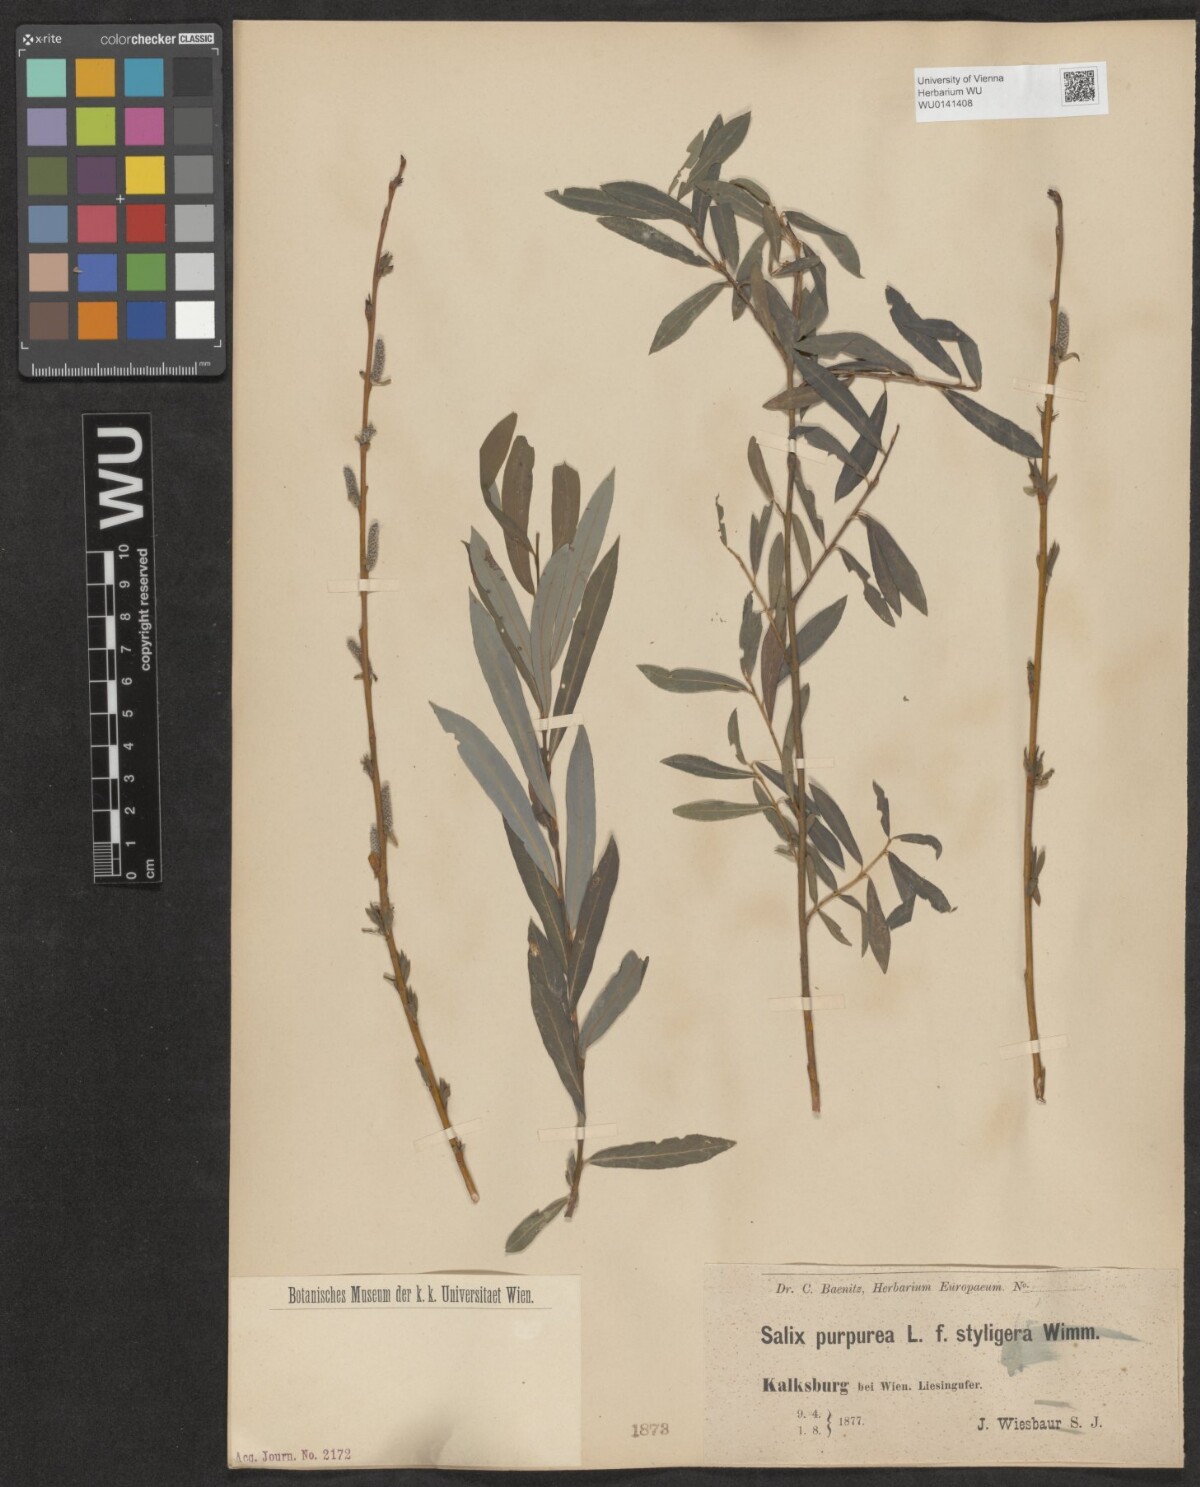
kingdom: Plantae
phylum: Tracheophyta
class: Magnoliopsida
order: Malpighiales
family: Salicaceae
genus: Salix
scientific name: Salix purpurea
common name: Purple willow
